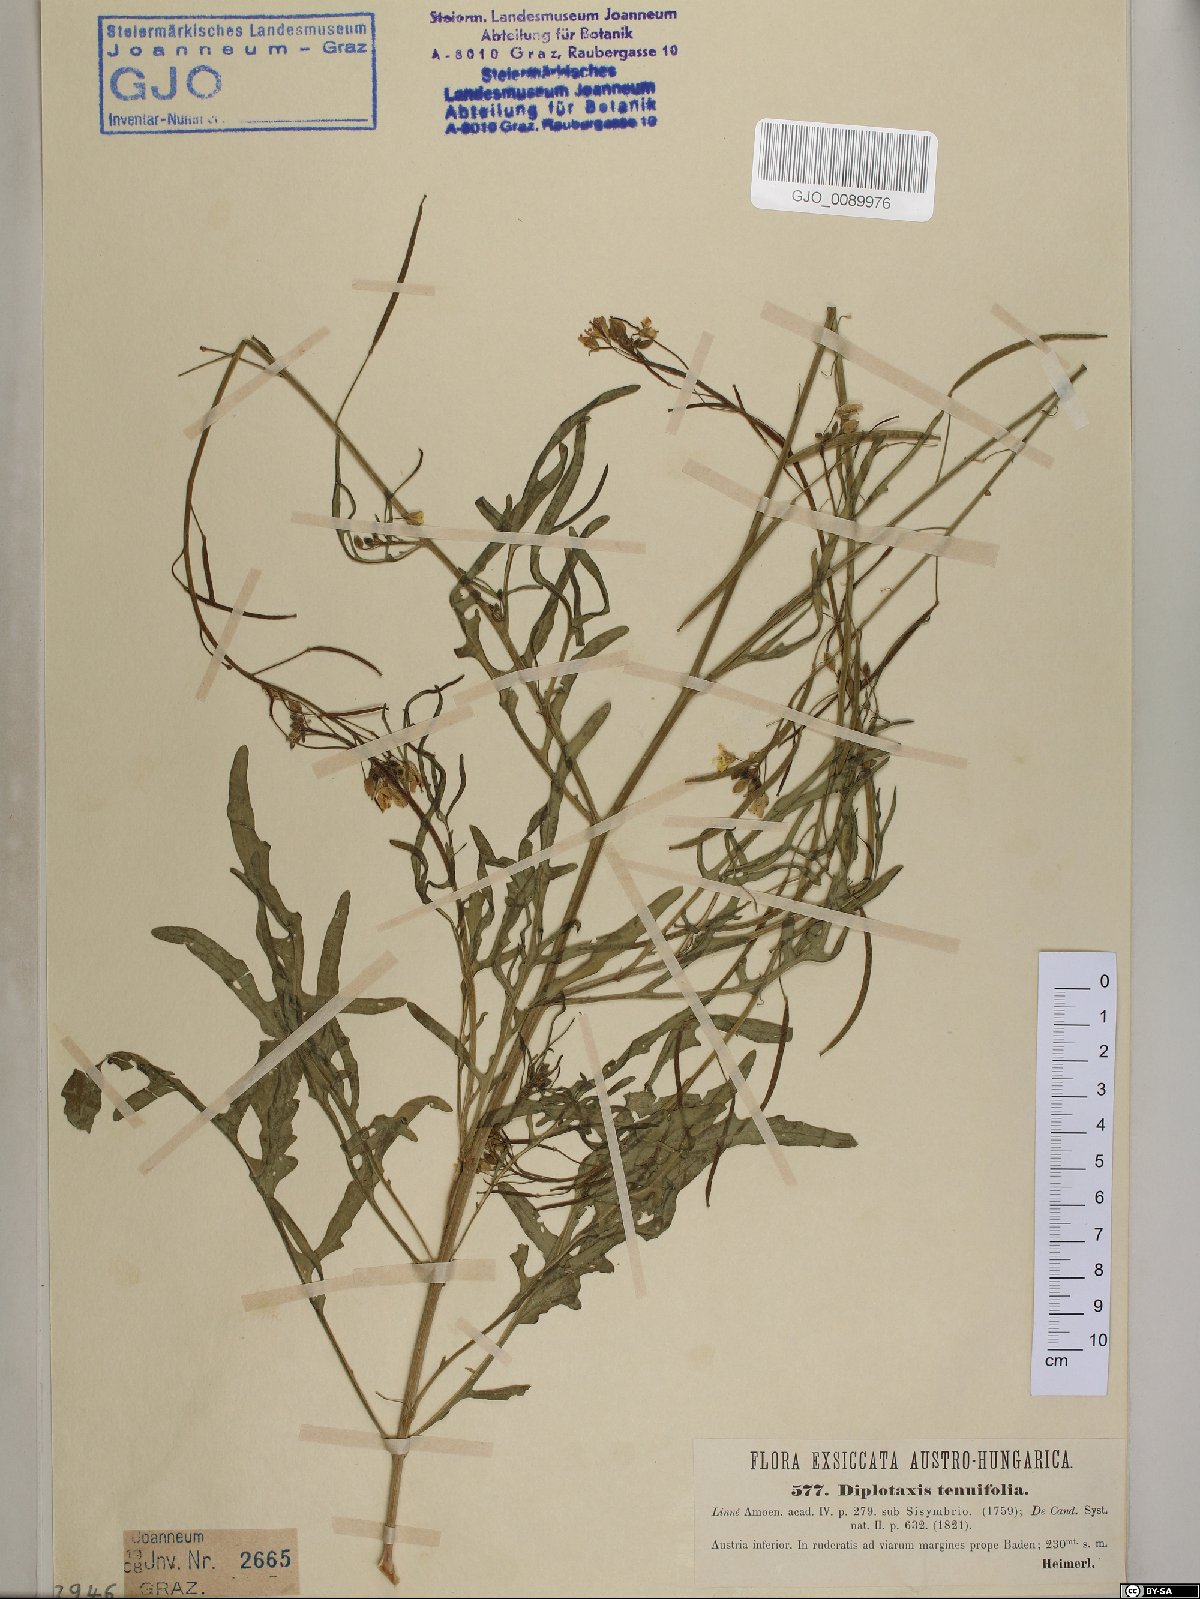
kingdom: Plantae
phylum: Tracheophyta
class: Magnoliopsida
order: Brassicales
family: Brassicaceae
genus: Diplotaxis
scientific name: Diplotaxis tenuifolia
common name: Perennial wall-rocket
